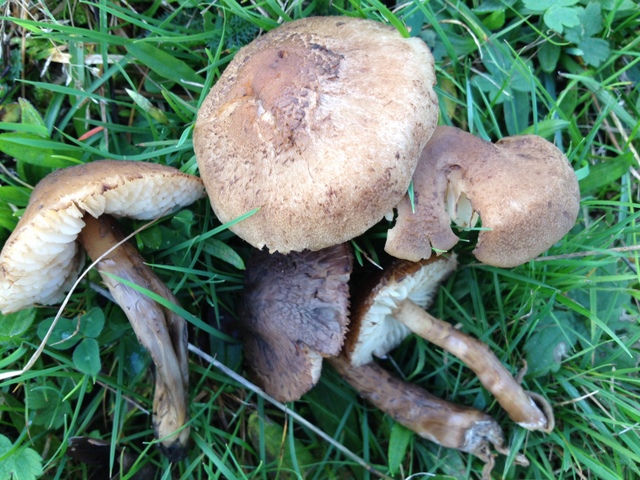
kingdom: Fungi
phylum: Basidiomycota
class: Agaricomycetes
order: Agaricales
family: Hygrophoraceae
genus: Hygrocybe
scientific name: Hygrocybe ingrata
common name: Jensens vokshat
